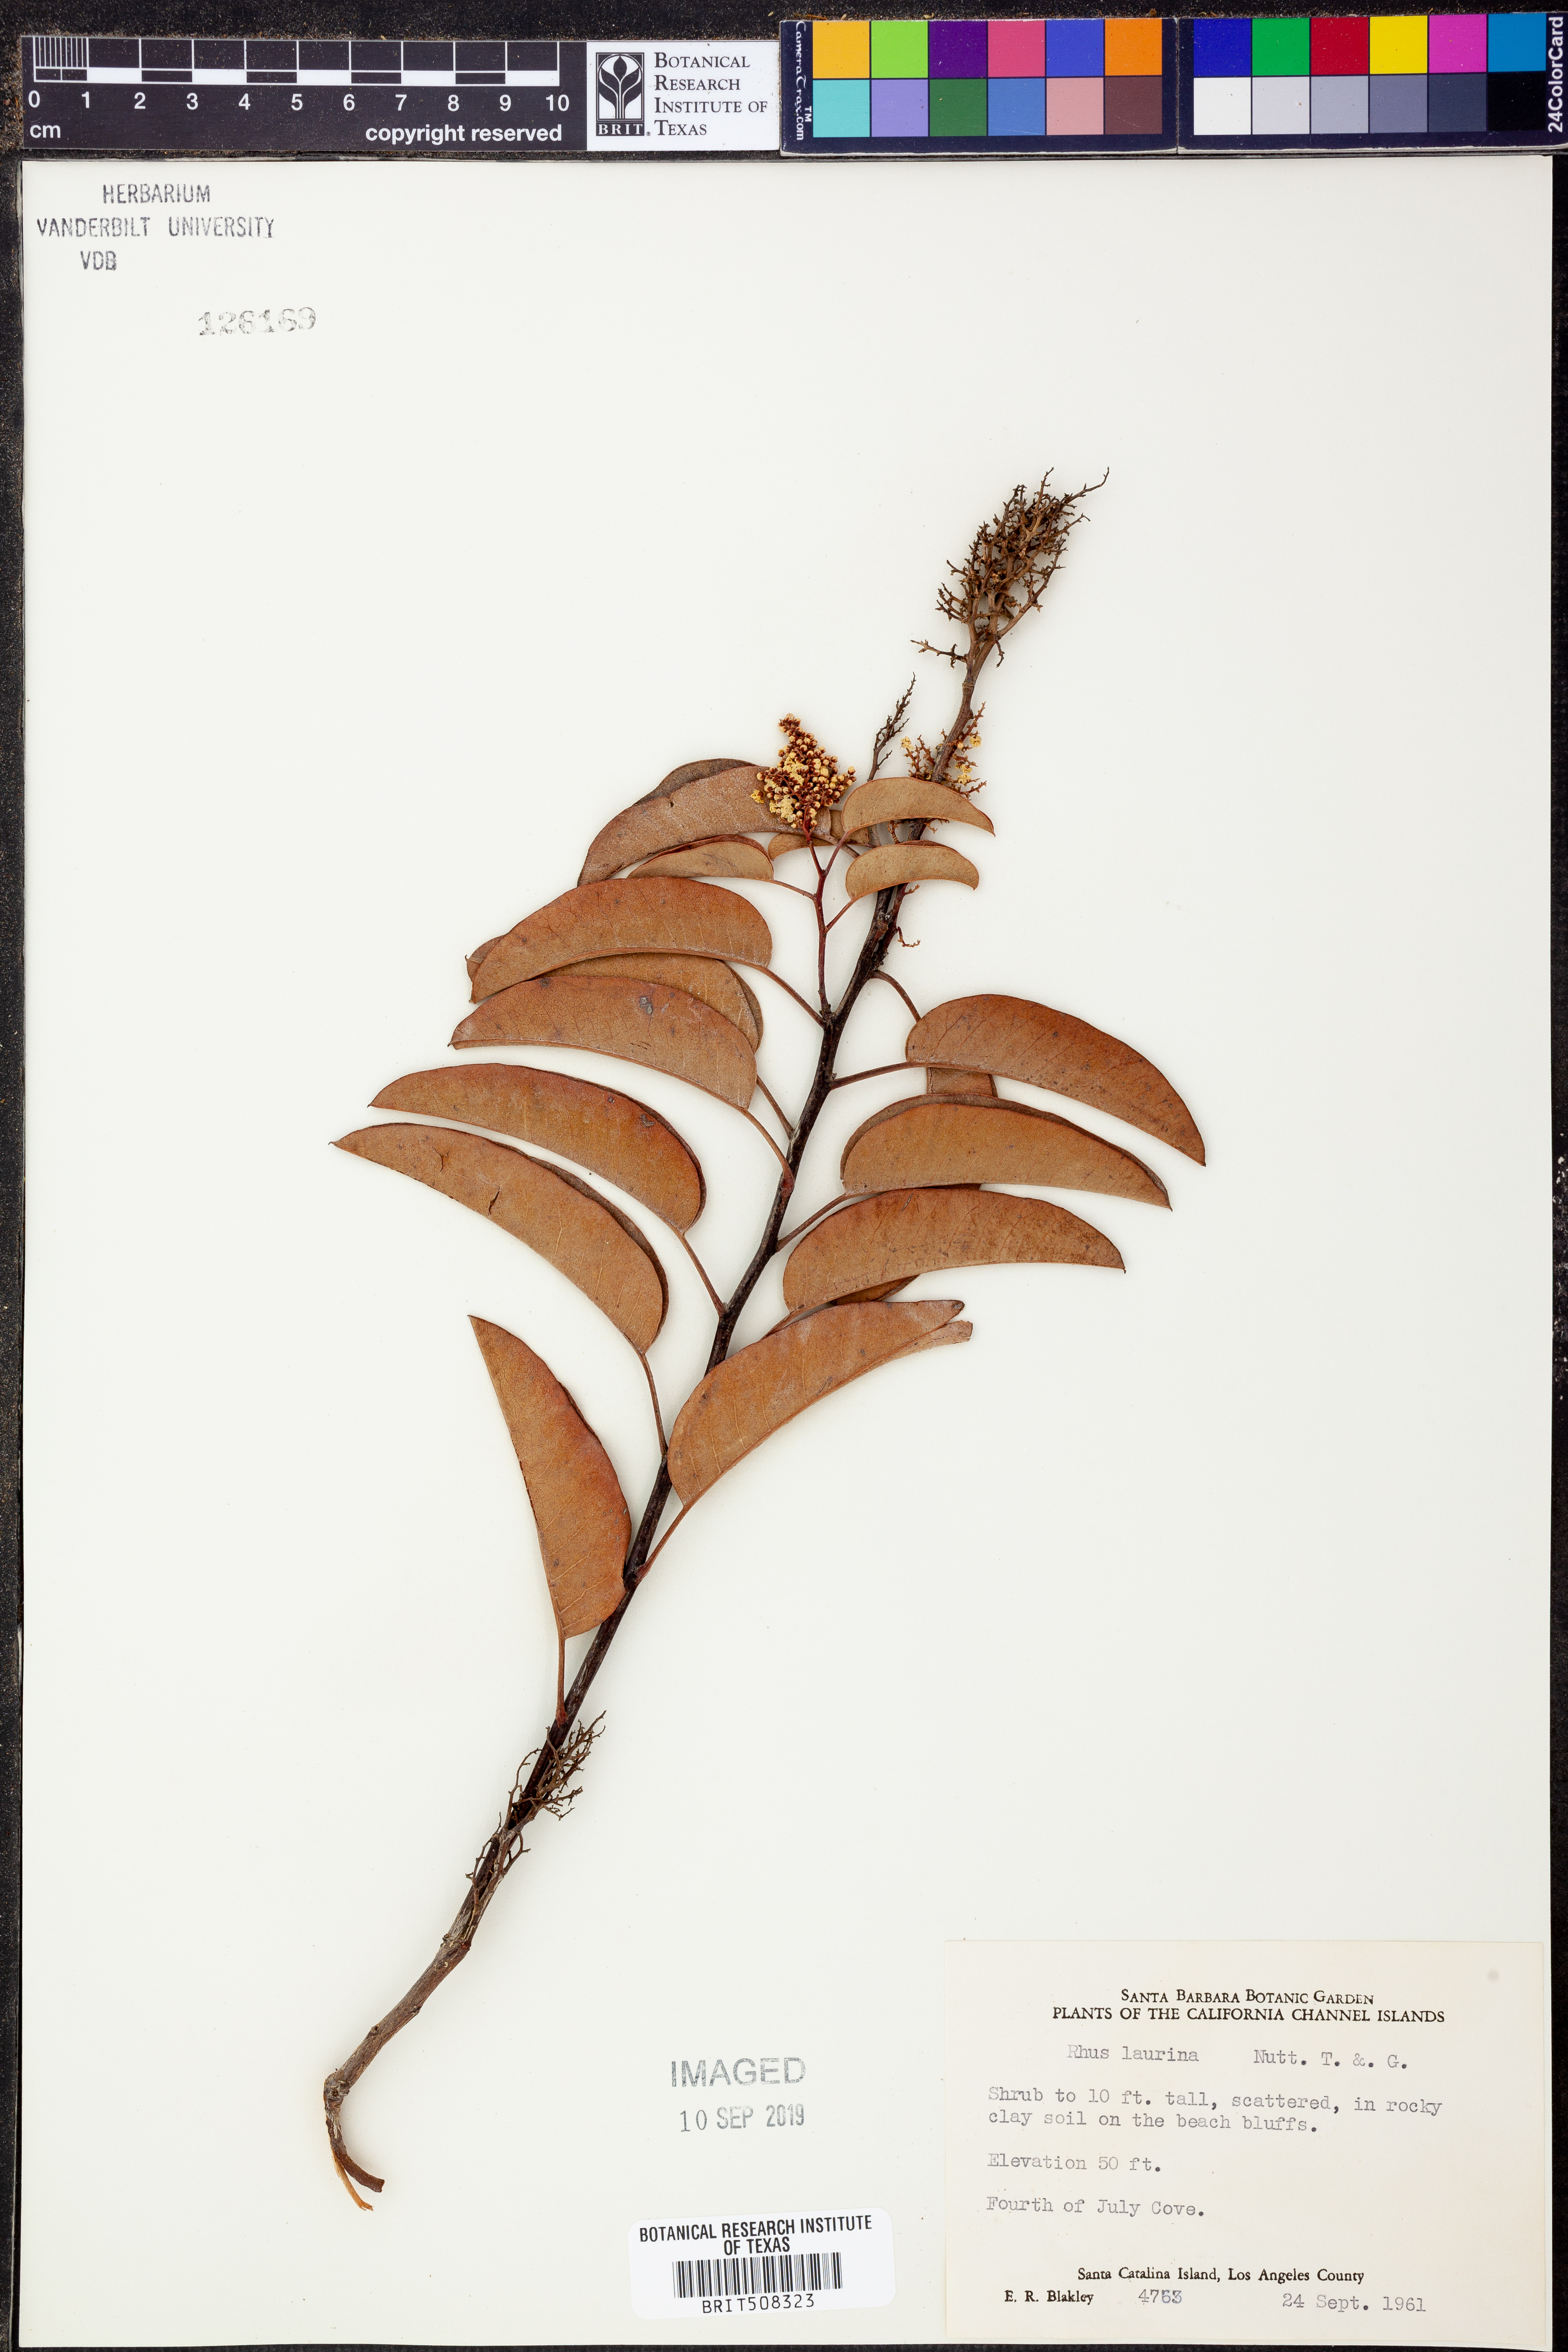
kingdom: Plantae
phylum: Tracheophyta
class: Magnoliopsida
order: Sapindales
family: Anacardiaceae
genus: Malosma
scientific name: Malosma laurina
